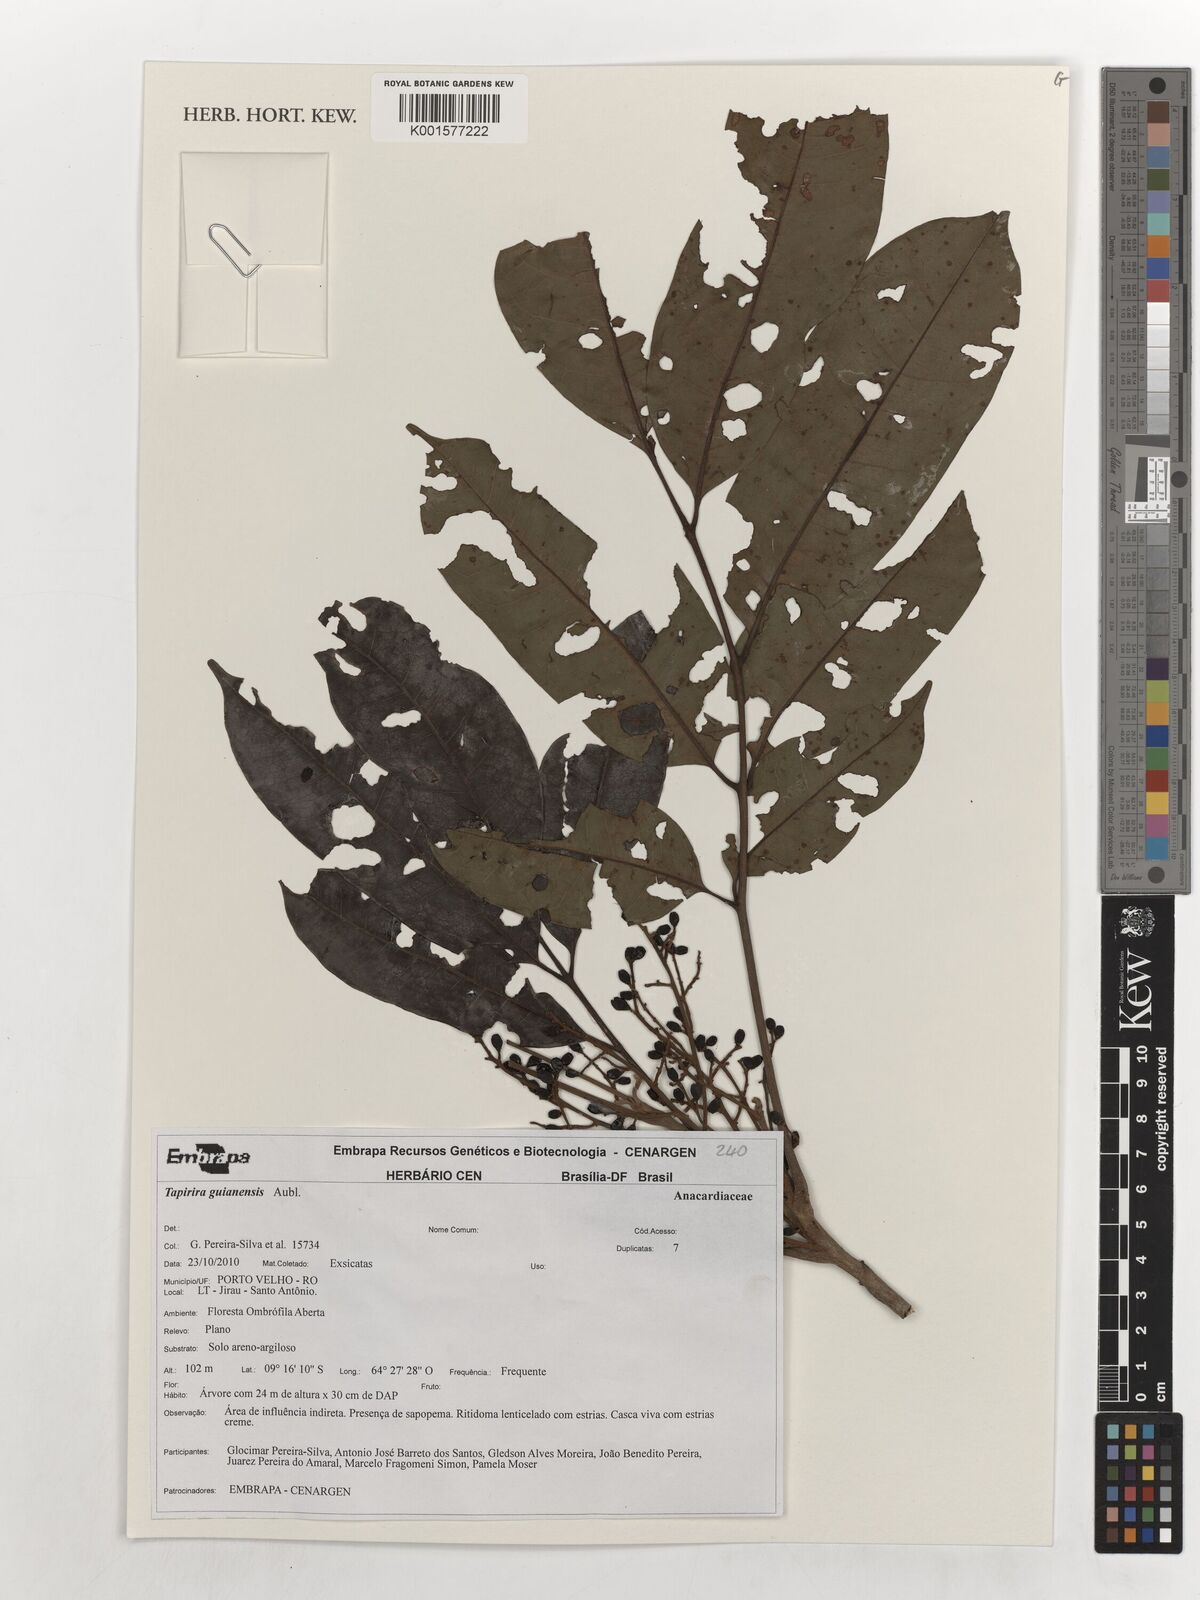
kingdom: Plantae
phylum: Tracheophyta
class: Magnoliopsida
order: Sapindales
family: Anacardiaceae
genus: Tapirira
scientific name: Tapirira guianensis
